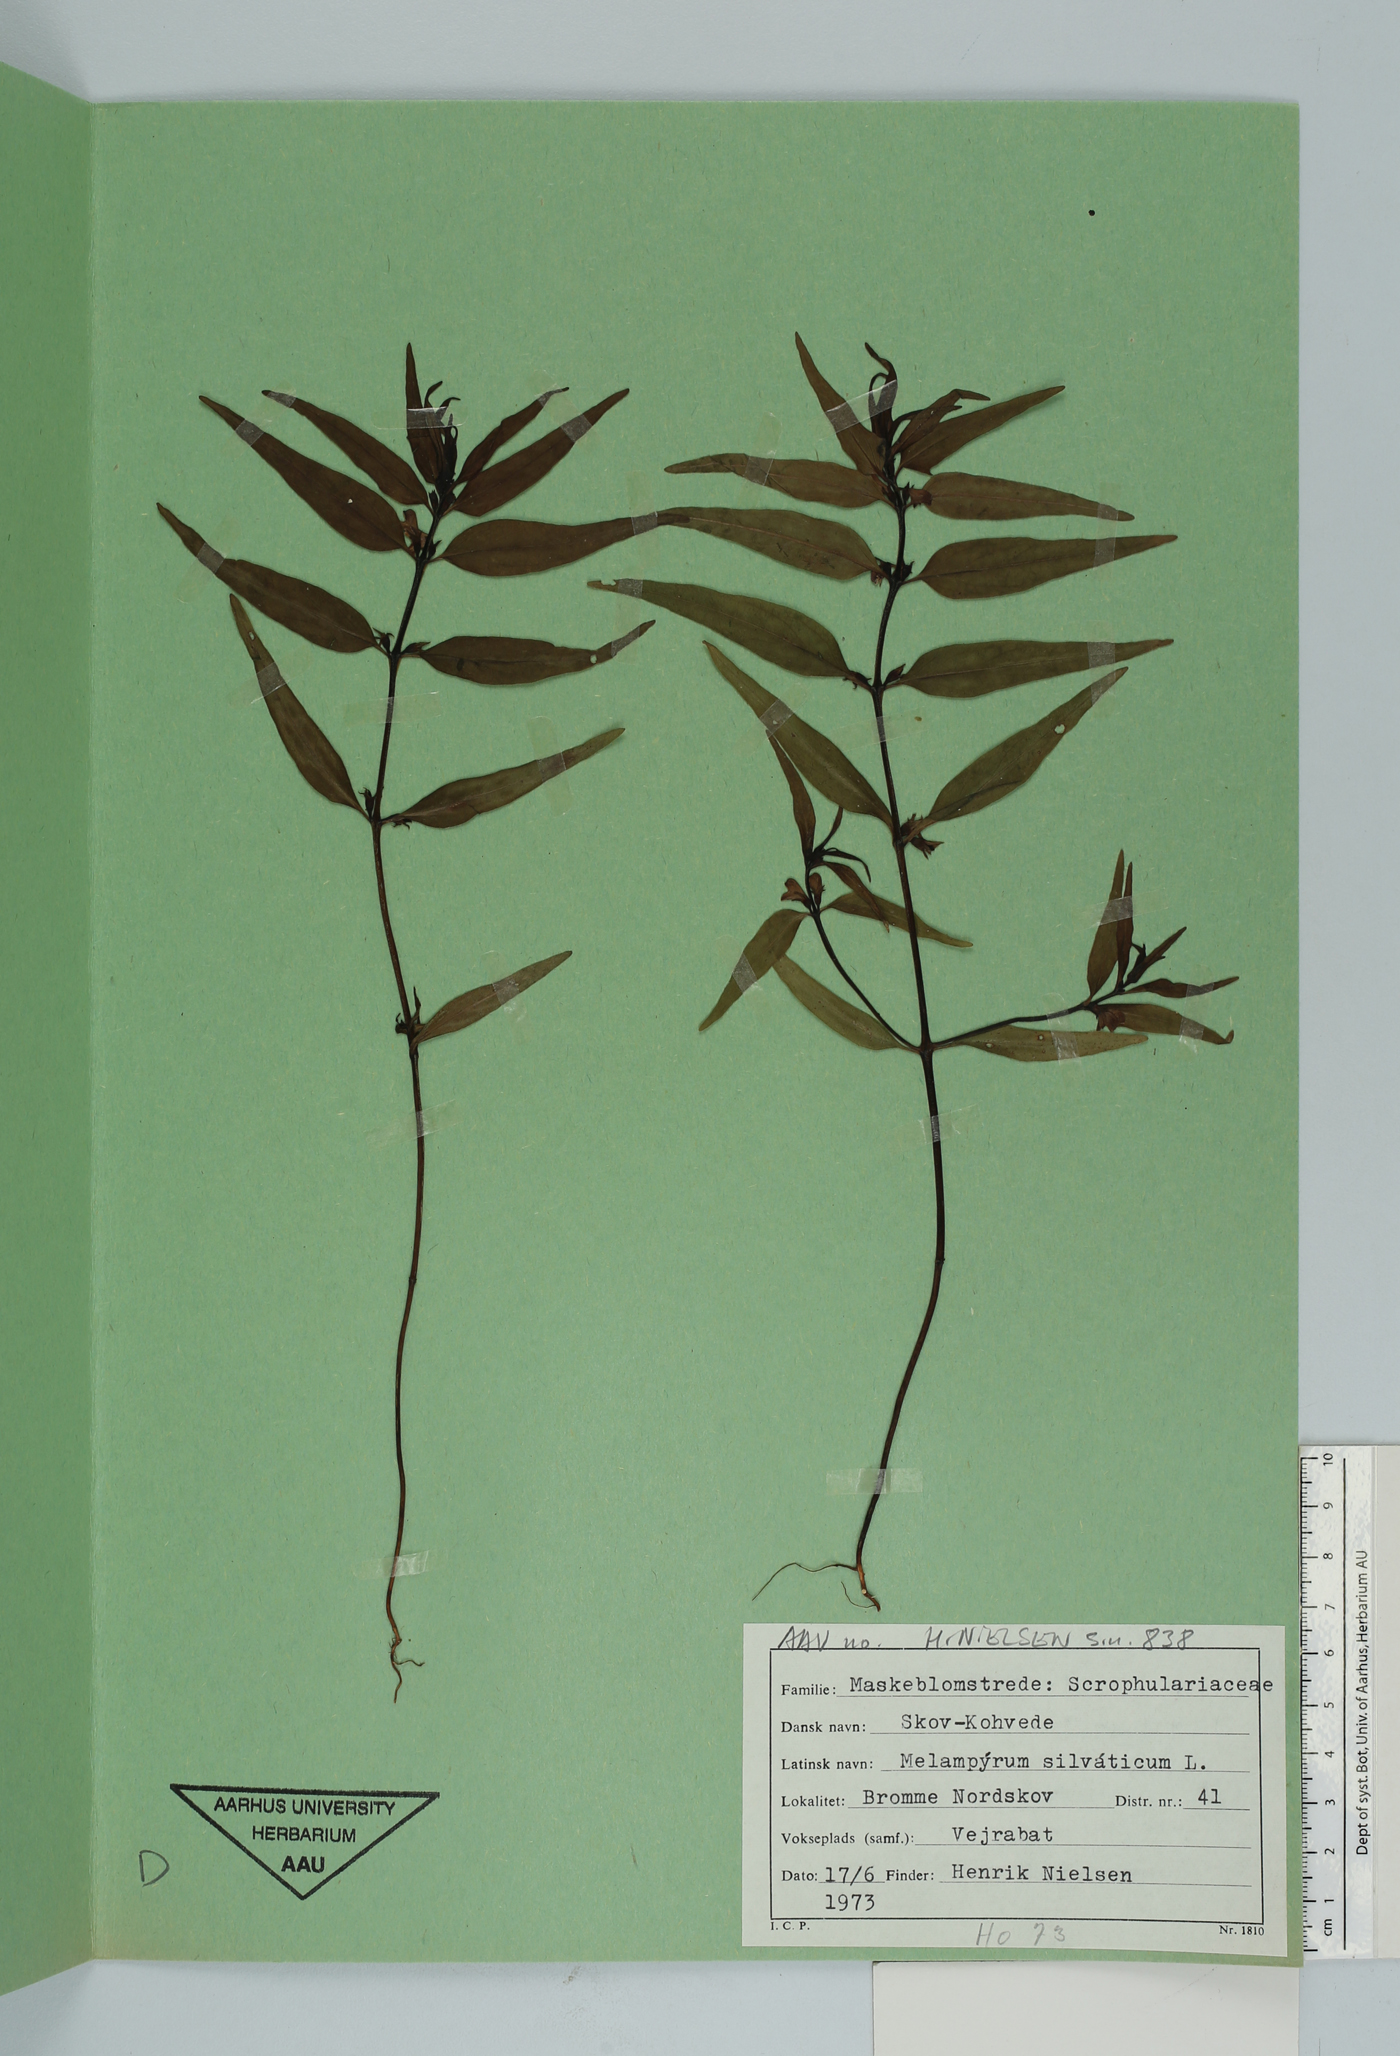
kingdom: Plantae
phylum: Tracheophyta
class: Magnoliopsida
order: Lamiales
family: Orobanchaceae
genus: Melampyrum
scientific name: Melampyrum sylvaticum
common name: Small cow-wheat
